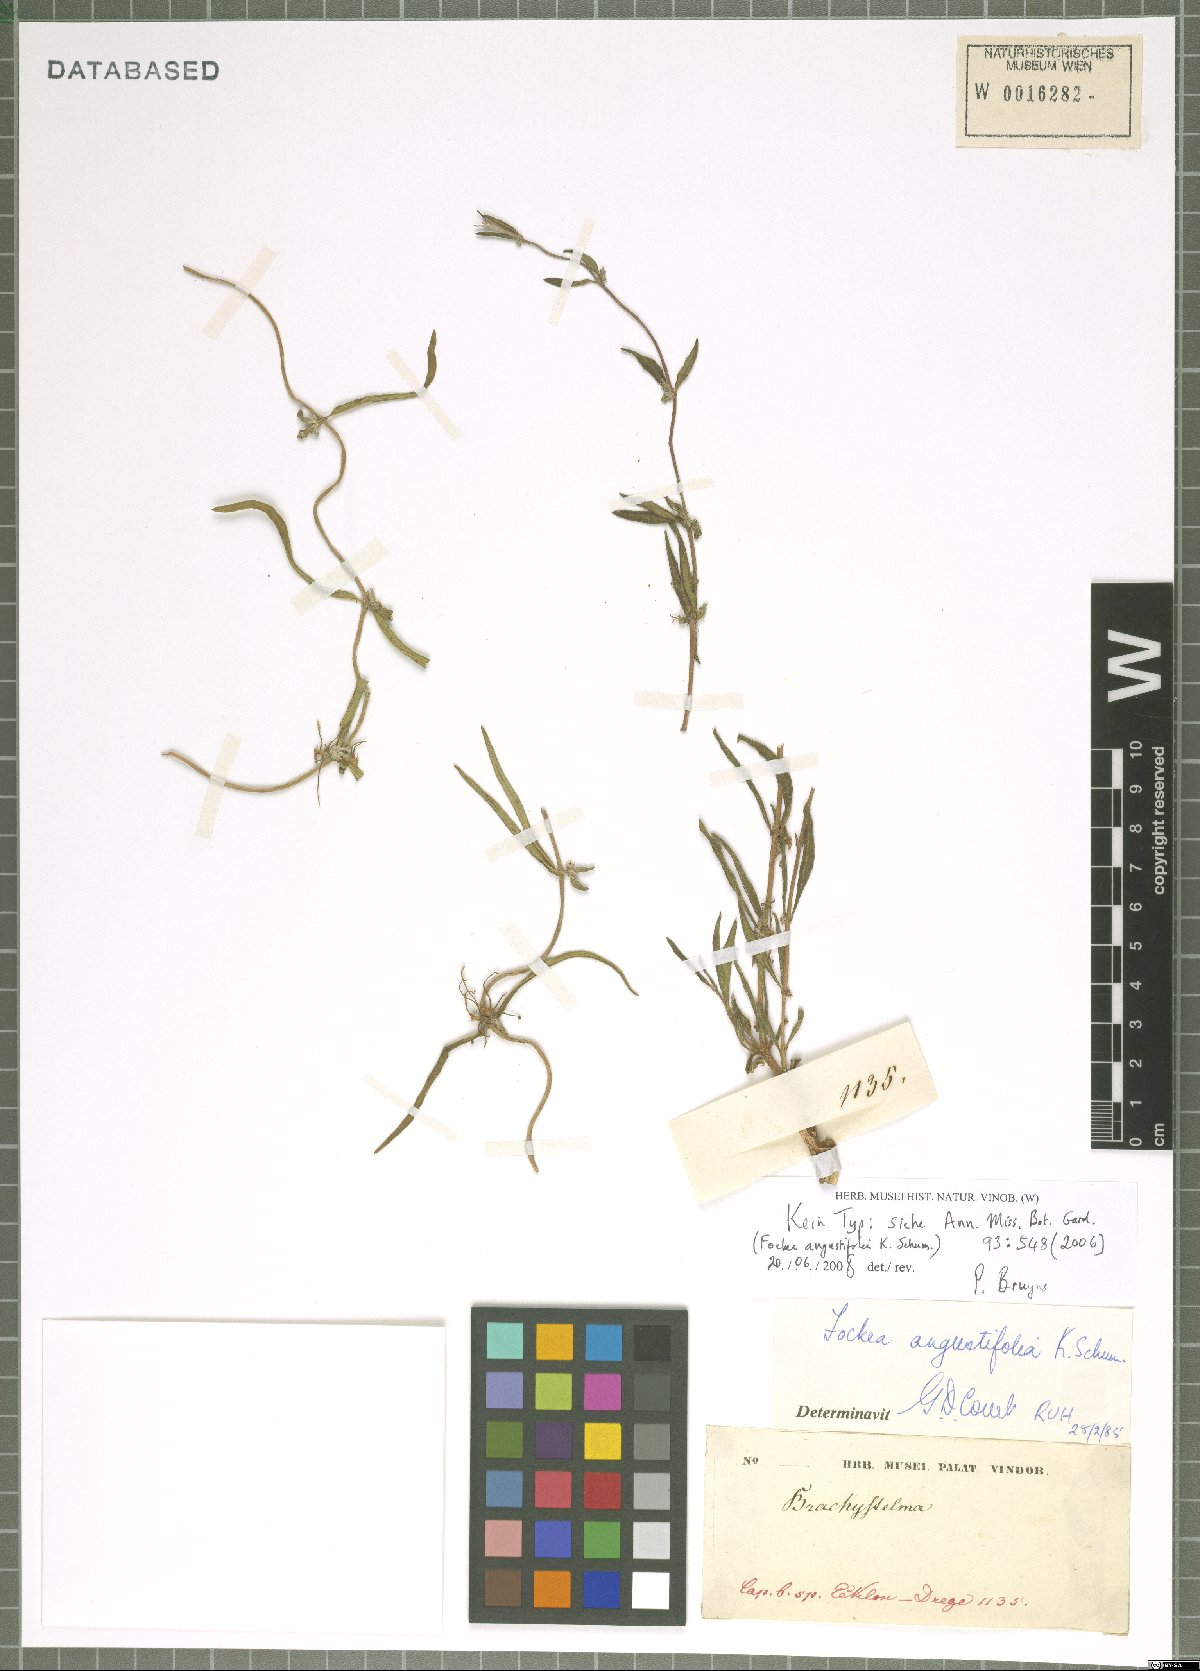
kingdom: Plantae
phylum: Tracheophyta
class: Magnoliopsida
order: Gentianales
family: Apocynaceae
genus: Fockea
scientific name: Fockea angustifolia
